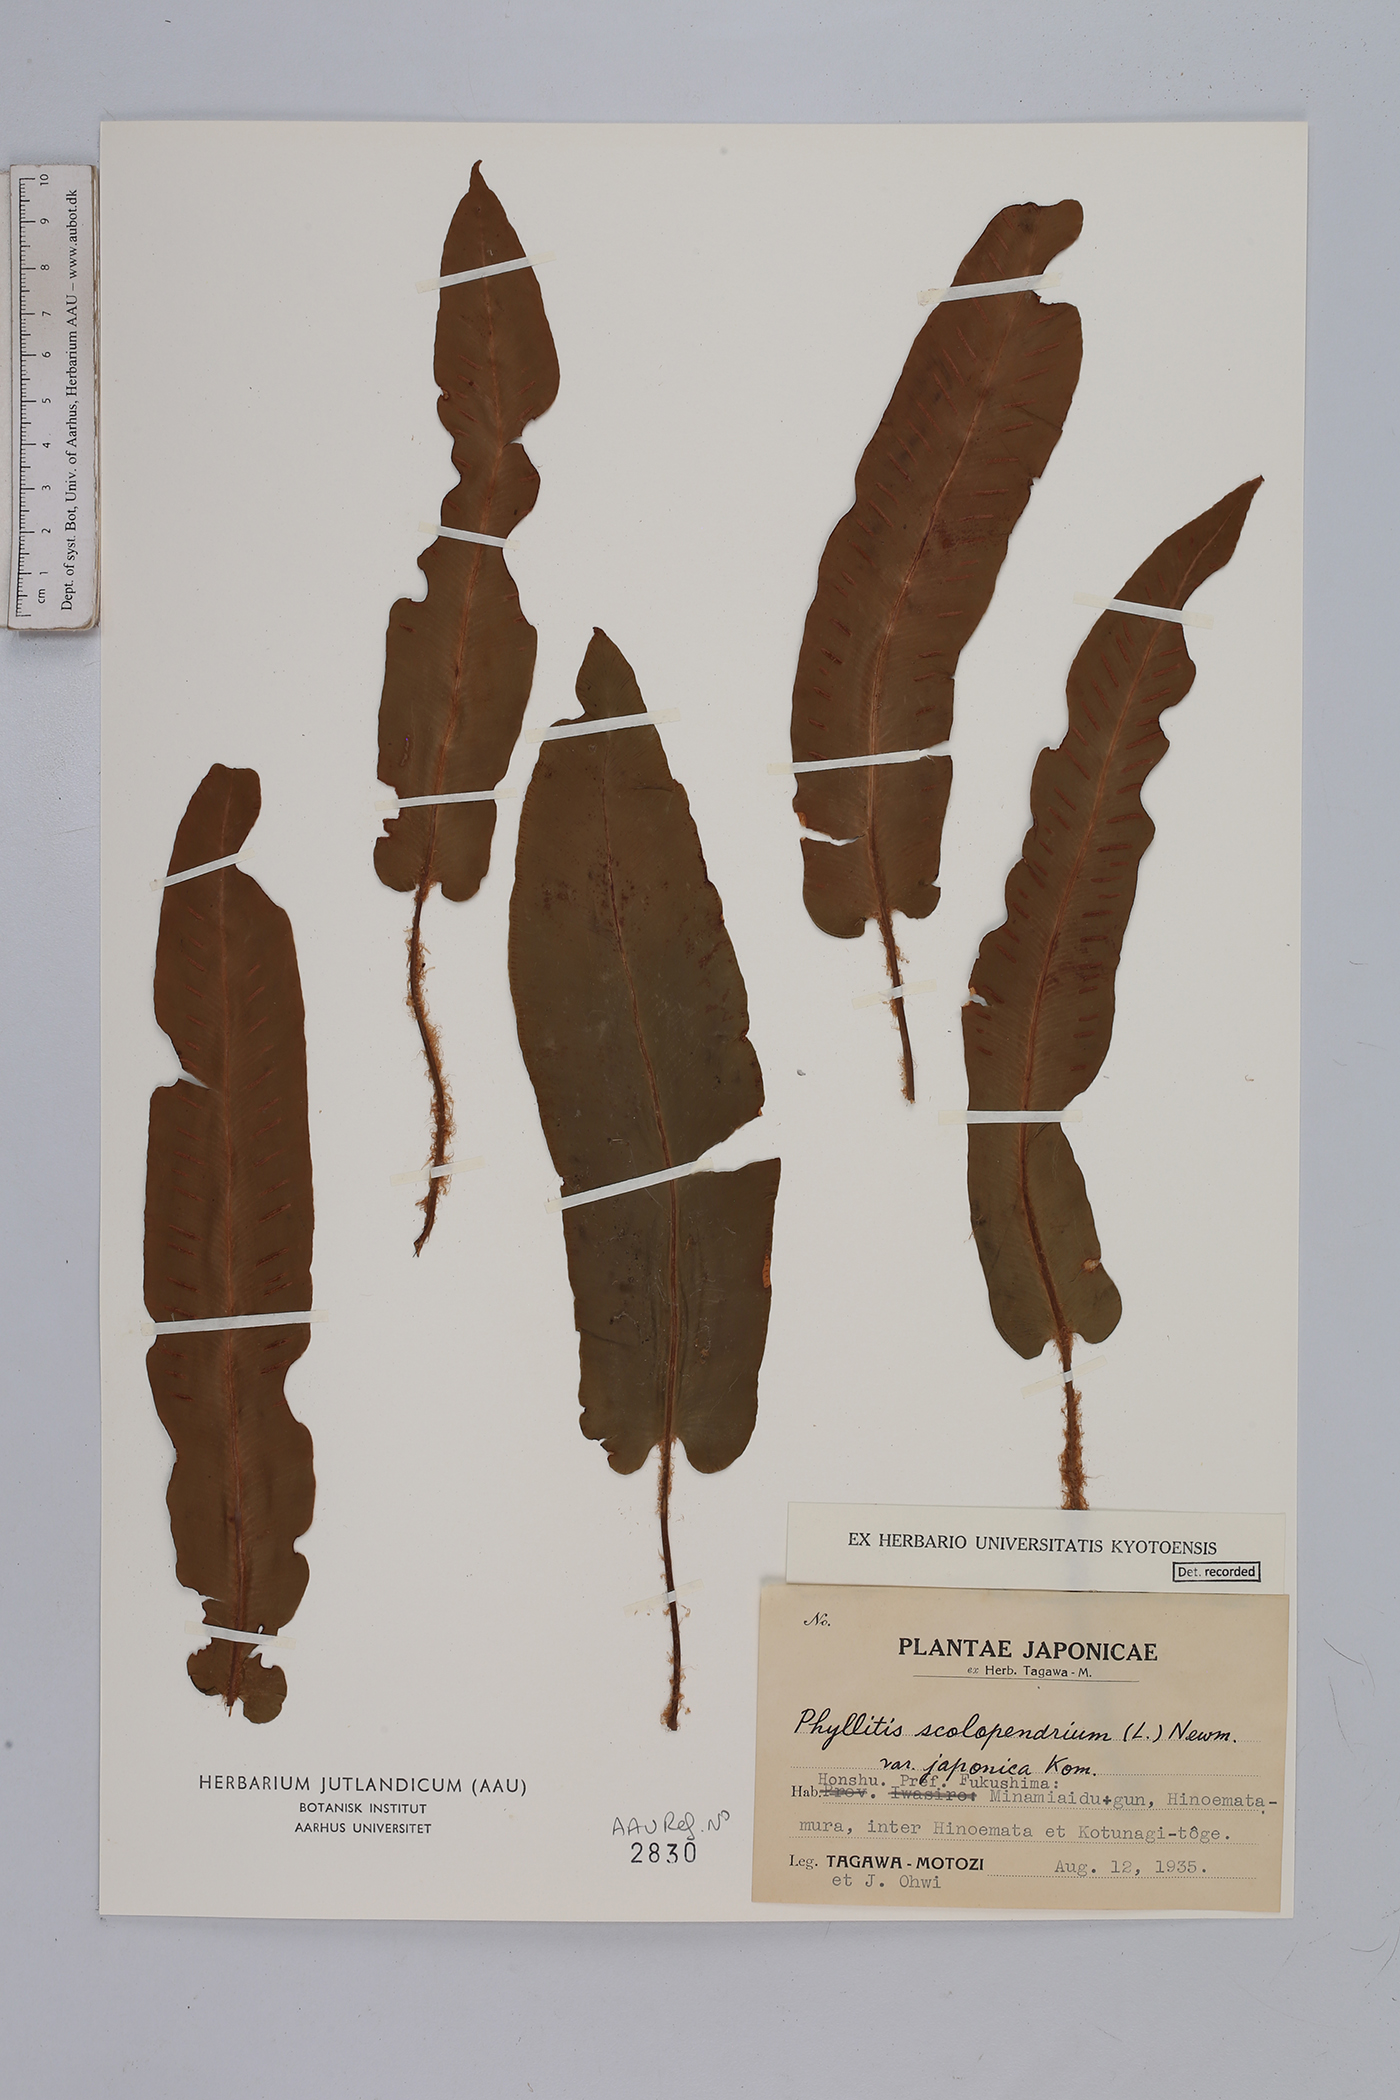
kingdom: Plantae
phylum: Tracheophyta
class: Polypodiopsida
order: Polypodiales
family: Aspleniaceae
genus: Asplenium
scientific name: Asplenium scolopendrium
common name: Hart's-tongue fern
